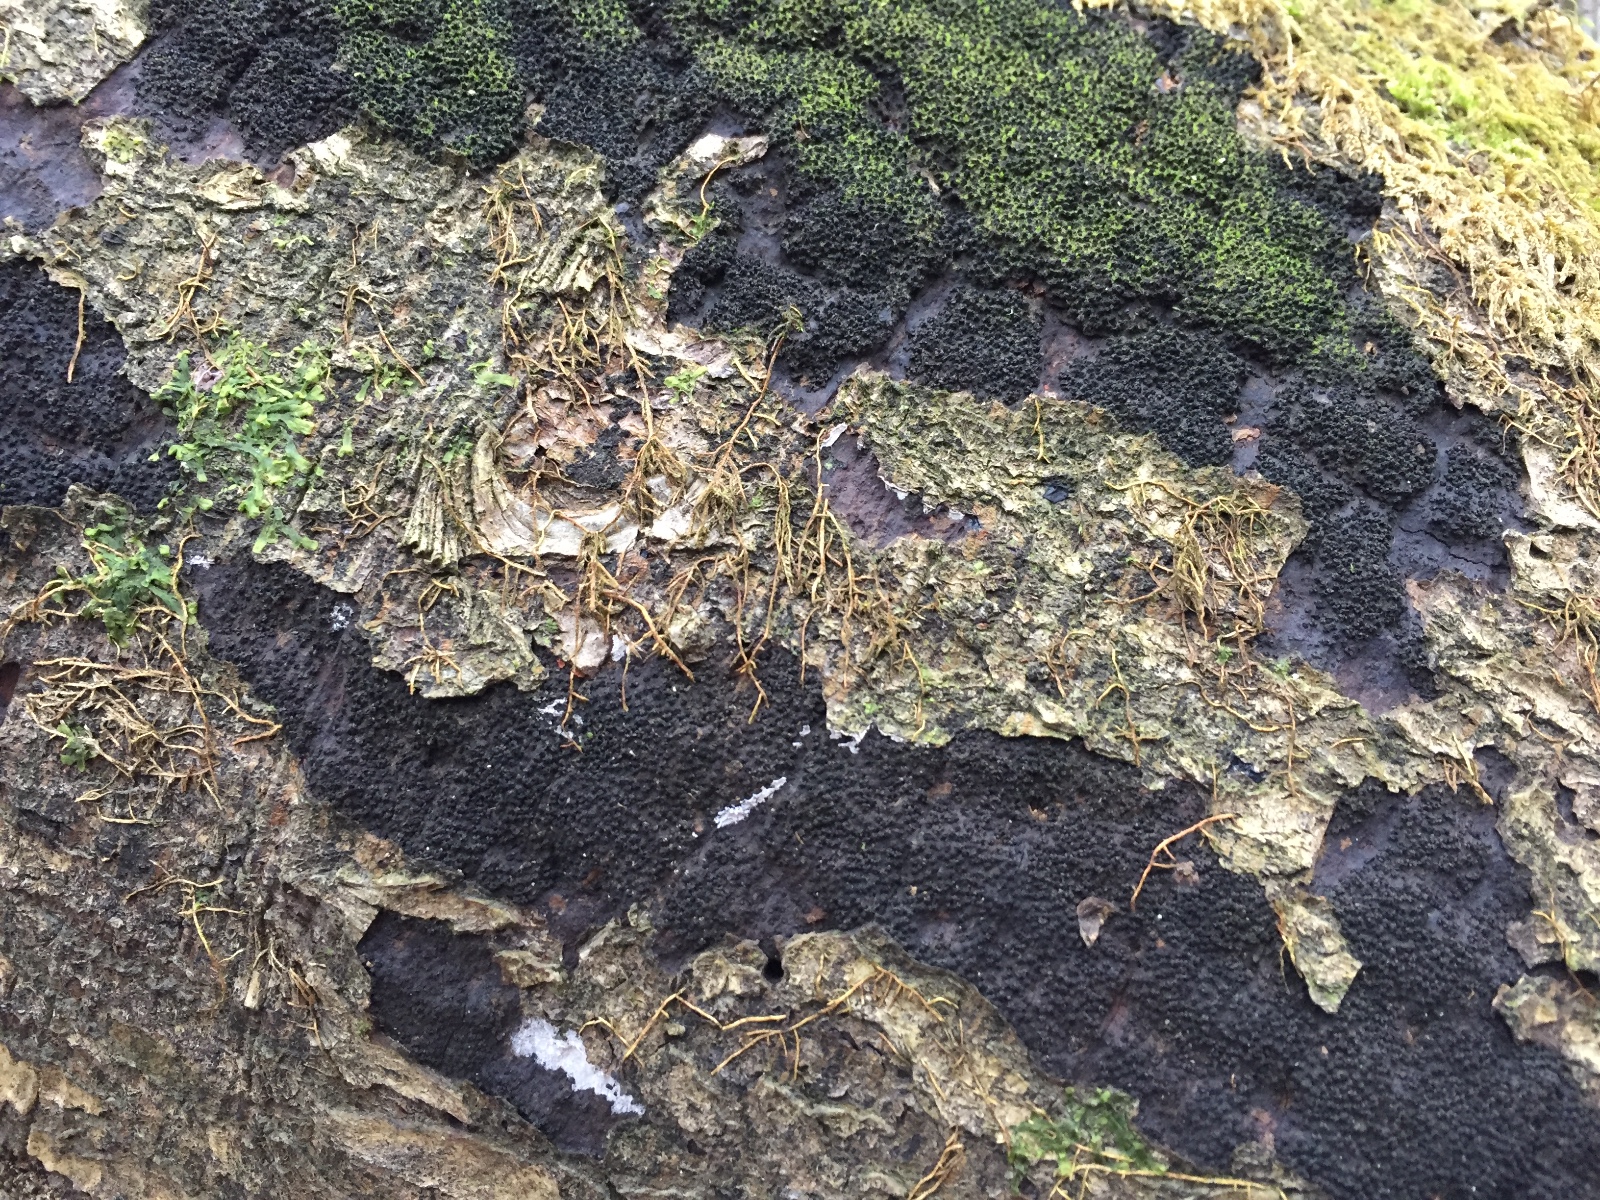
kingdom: Fungi
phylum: Ascomycota
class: Sordariomycetes
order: Xylariales
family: Diatrypaceae
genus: Eutypa
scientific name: Eutypa spinosa
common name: grov kulskorpe
